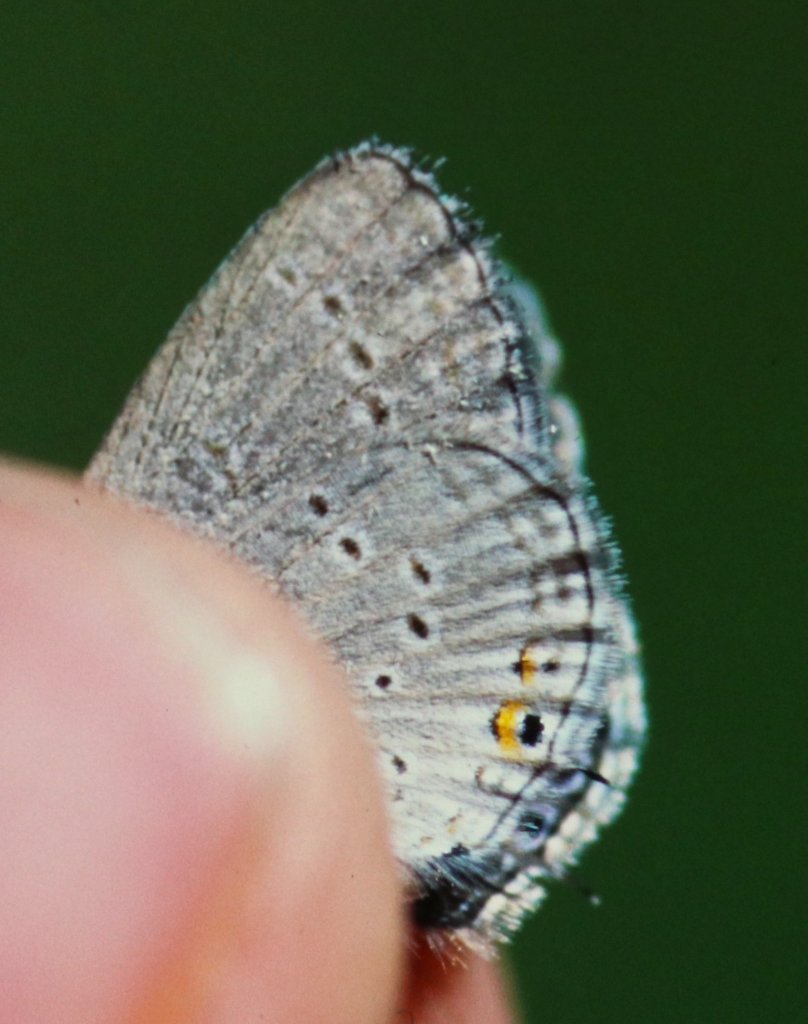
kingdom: Animalia
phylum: Arthropoda
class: Insecta
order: Lepidoptera
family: Lycaenidae
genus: Elkalyce
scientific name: Elkalyce amyntula
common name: Western Tailed-Blue
